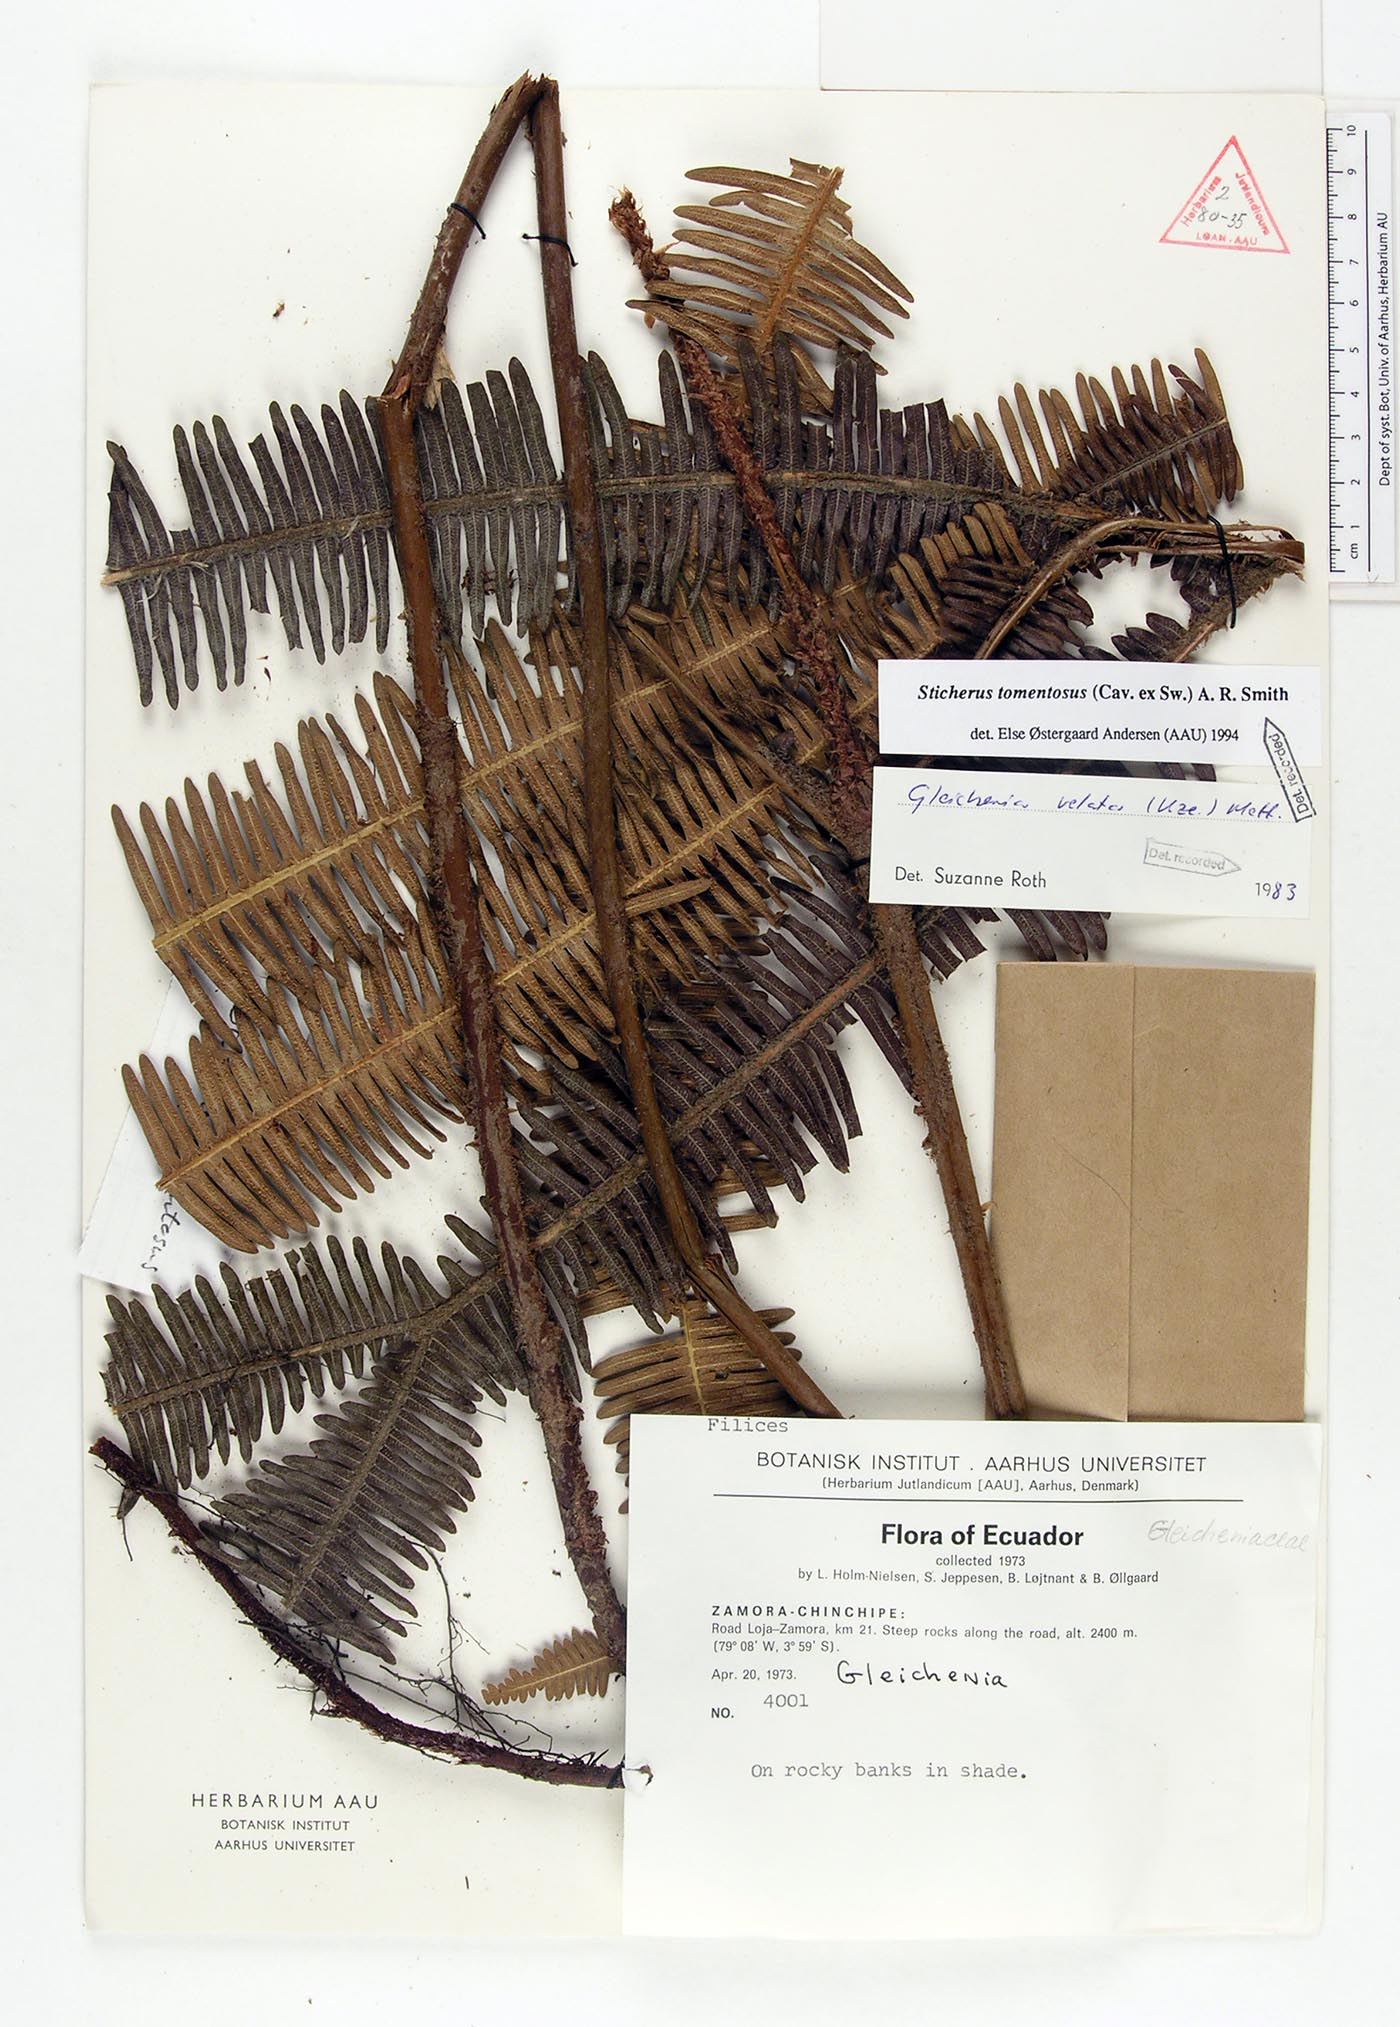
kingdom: Plantae
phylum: Tracheophyta
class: Polypodiopsida
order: Gleicheniales
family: Gleicheniaceae
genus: Sticherus
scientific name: Sticherus tomentosus
